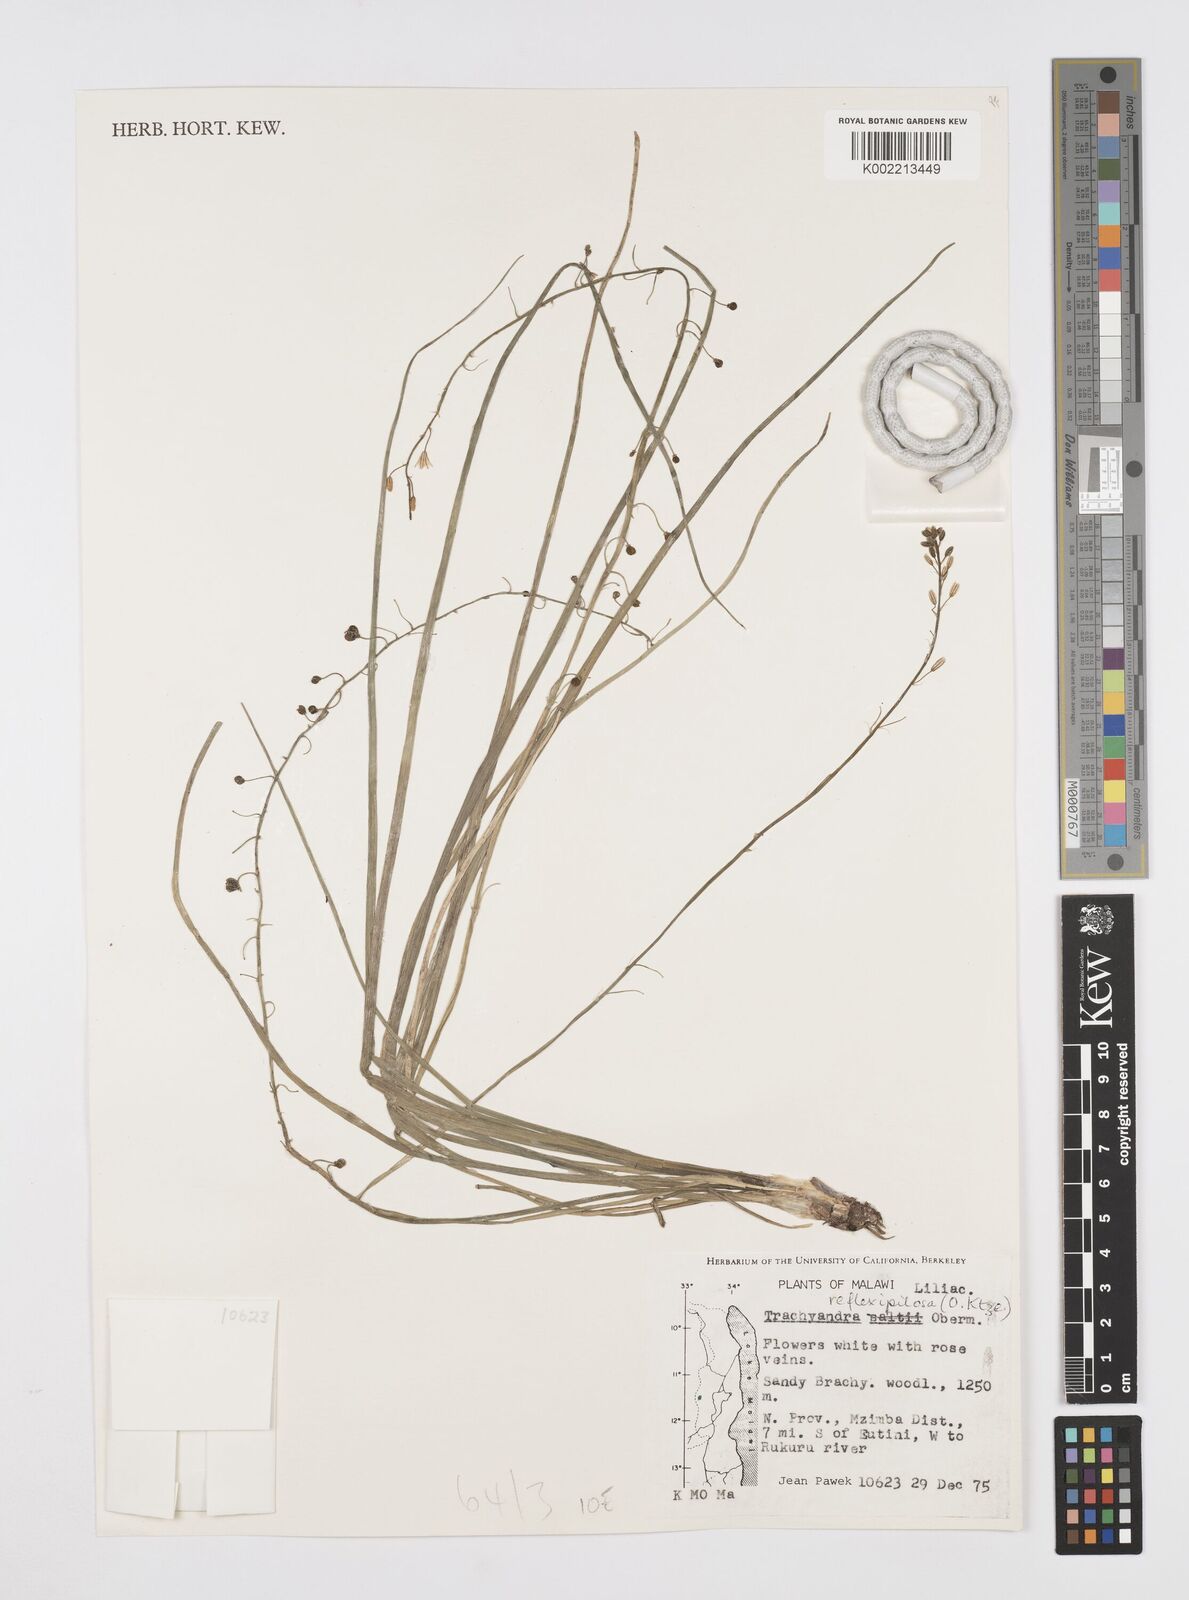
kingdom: Plantae
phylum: Tracheophyta
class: Liliopsida
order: Asparagales
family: Asphodelaceae
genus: Trachyandra
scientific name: Trachyandra saltii
